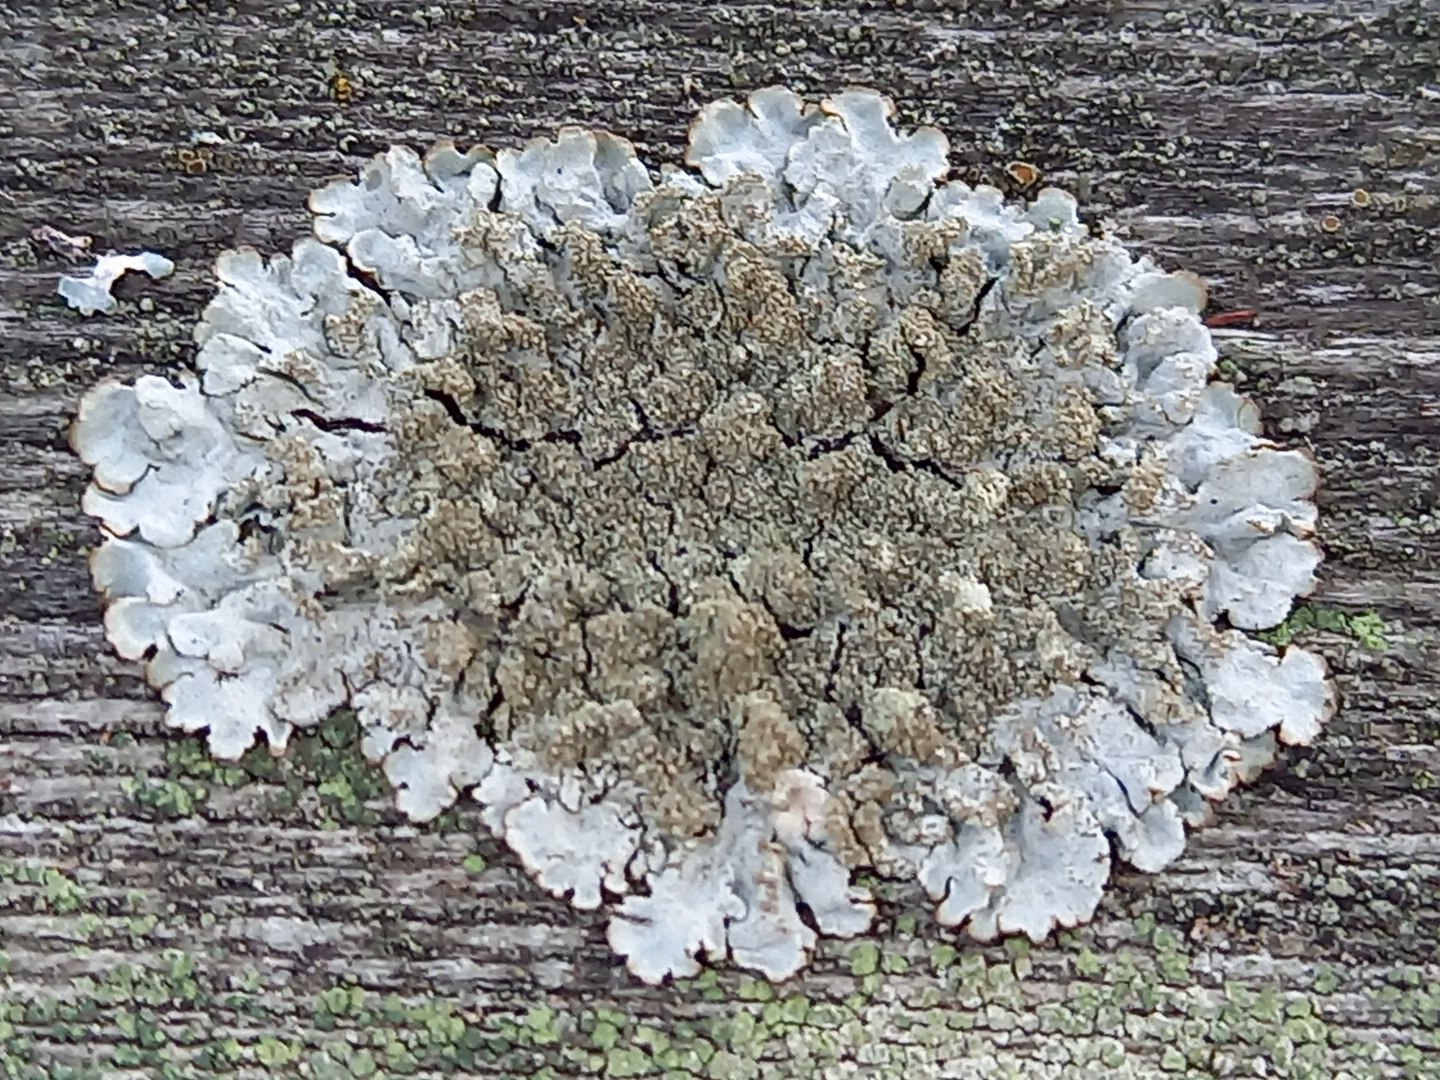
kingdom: Fungi
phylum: Ascomycota
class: Lecanoromycetes
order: Lecanorales
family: Parmeliaceae
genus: Parmelia
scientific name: Parmelia saxatilis
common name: farve-skållav
